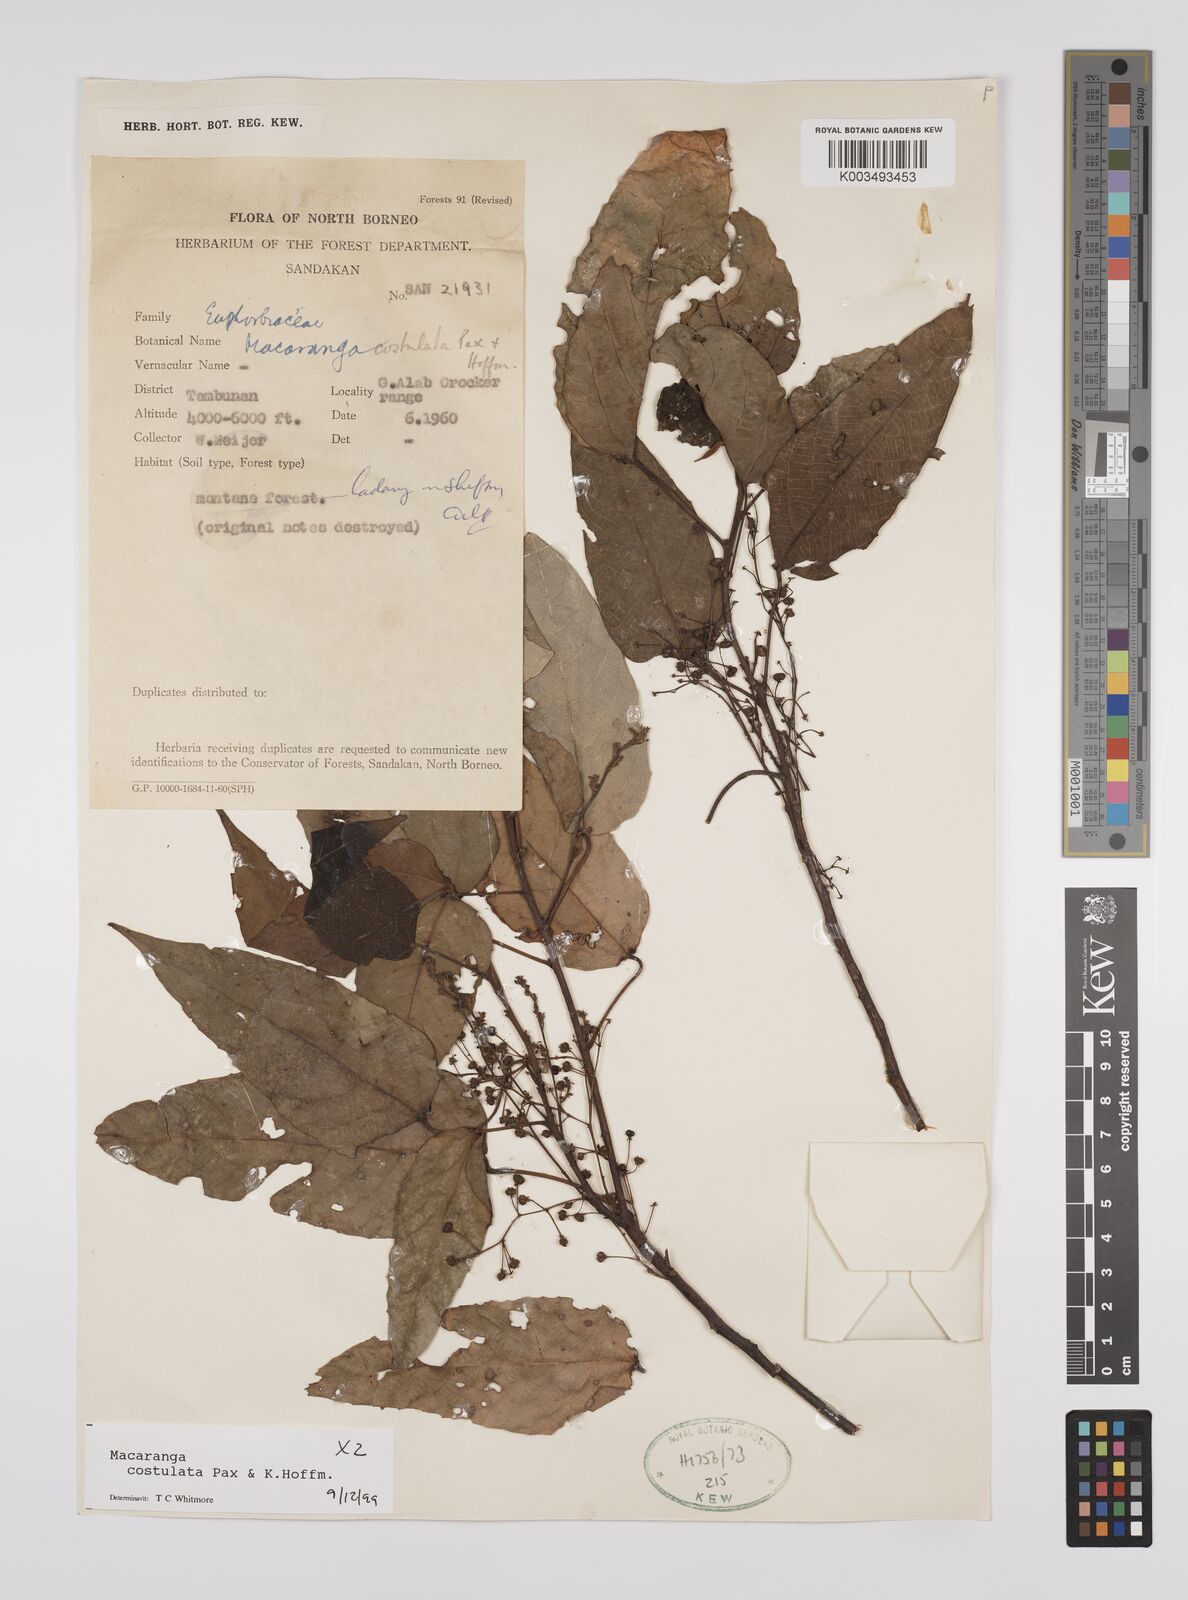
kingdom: Plantae
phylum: Tracheophyta
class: Magnoliopsida
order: Malpighiales
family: Euphorbiaceae
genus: Macaranga
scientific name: Macaranga costulata
